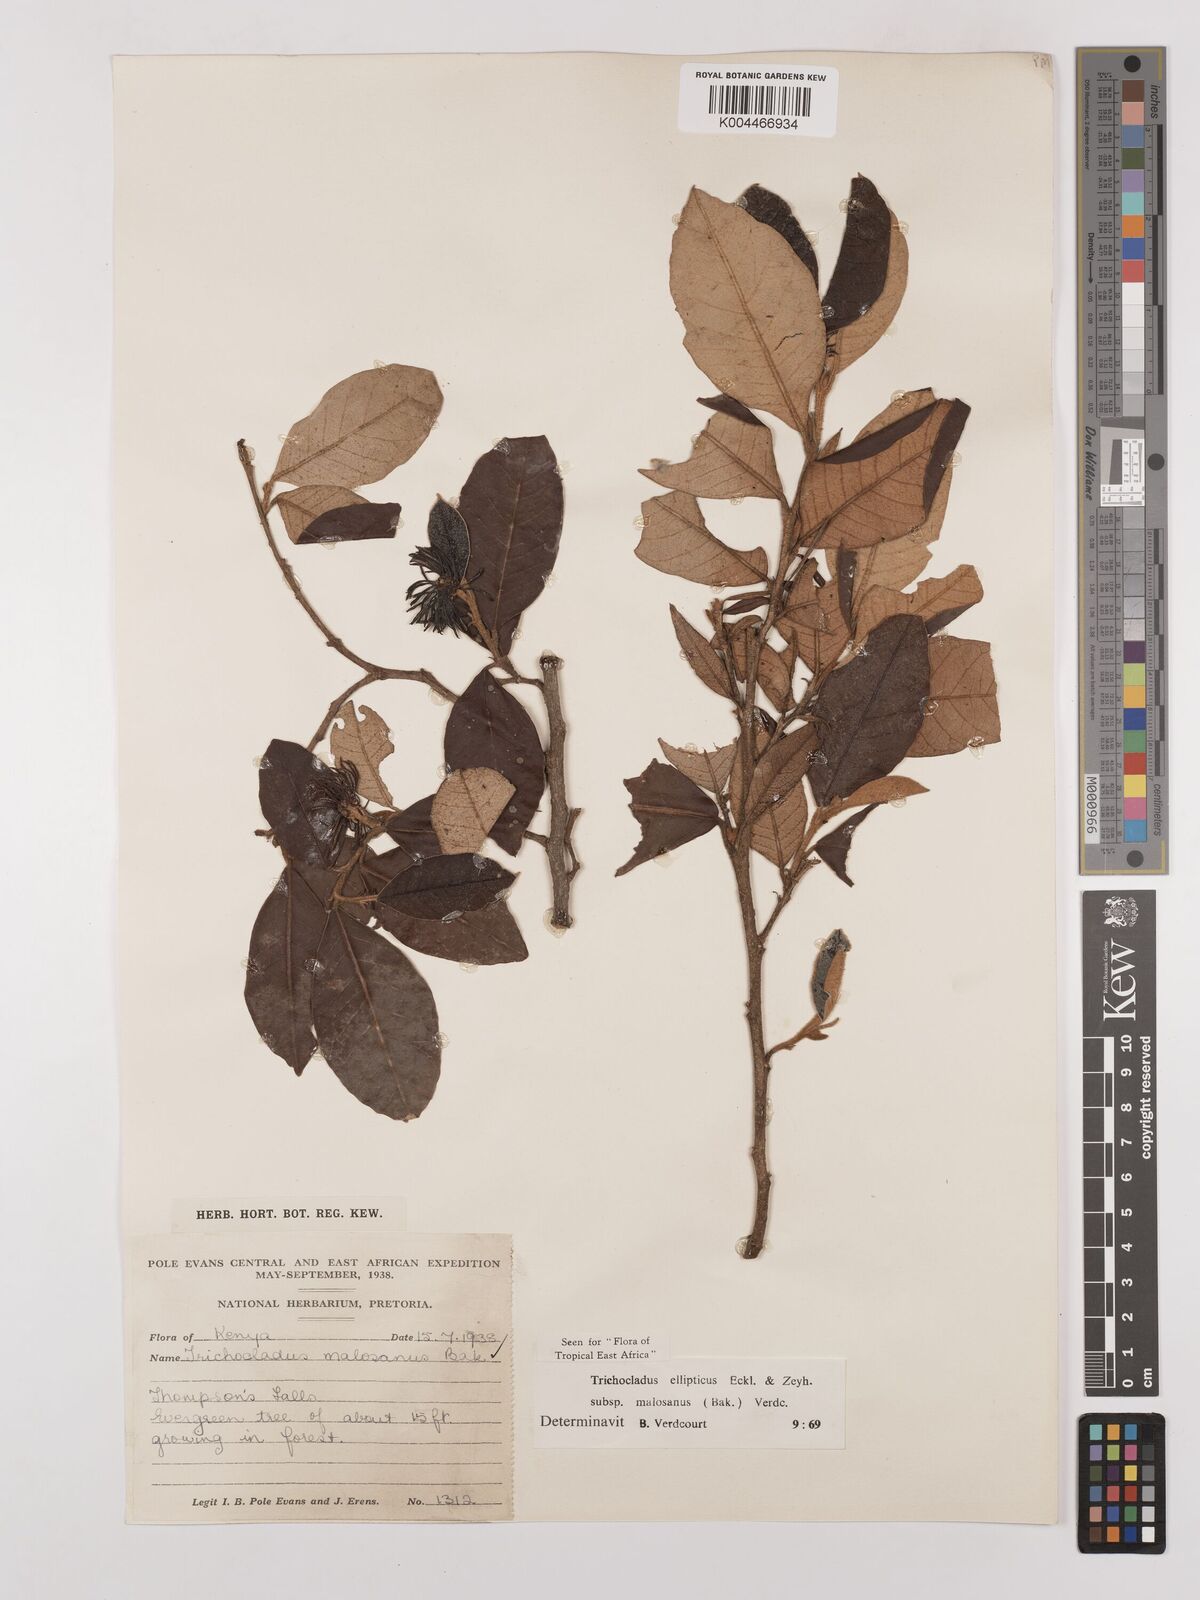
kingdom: Plantae
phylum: Tracheophyta
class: Magnoliopsida
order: Saxifragales
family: Hamamelidaceae
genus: Trichocladus
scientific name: Trichocladus ellipticus
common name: White witch-hazel
